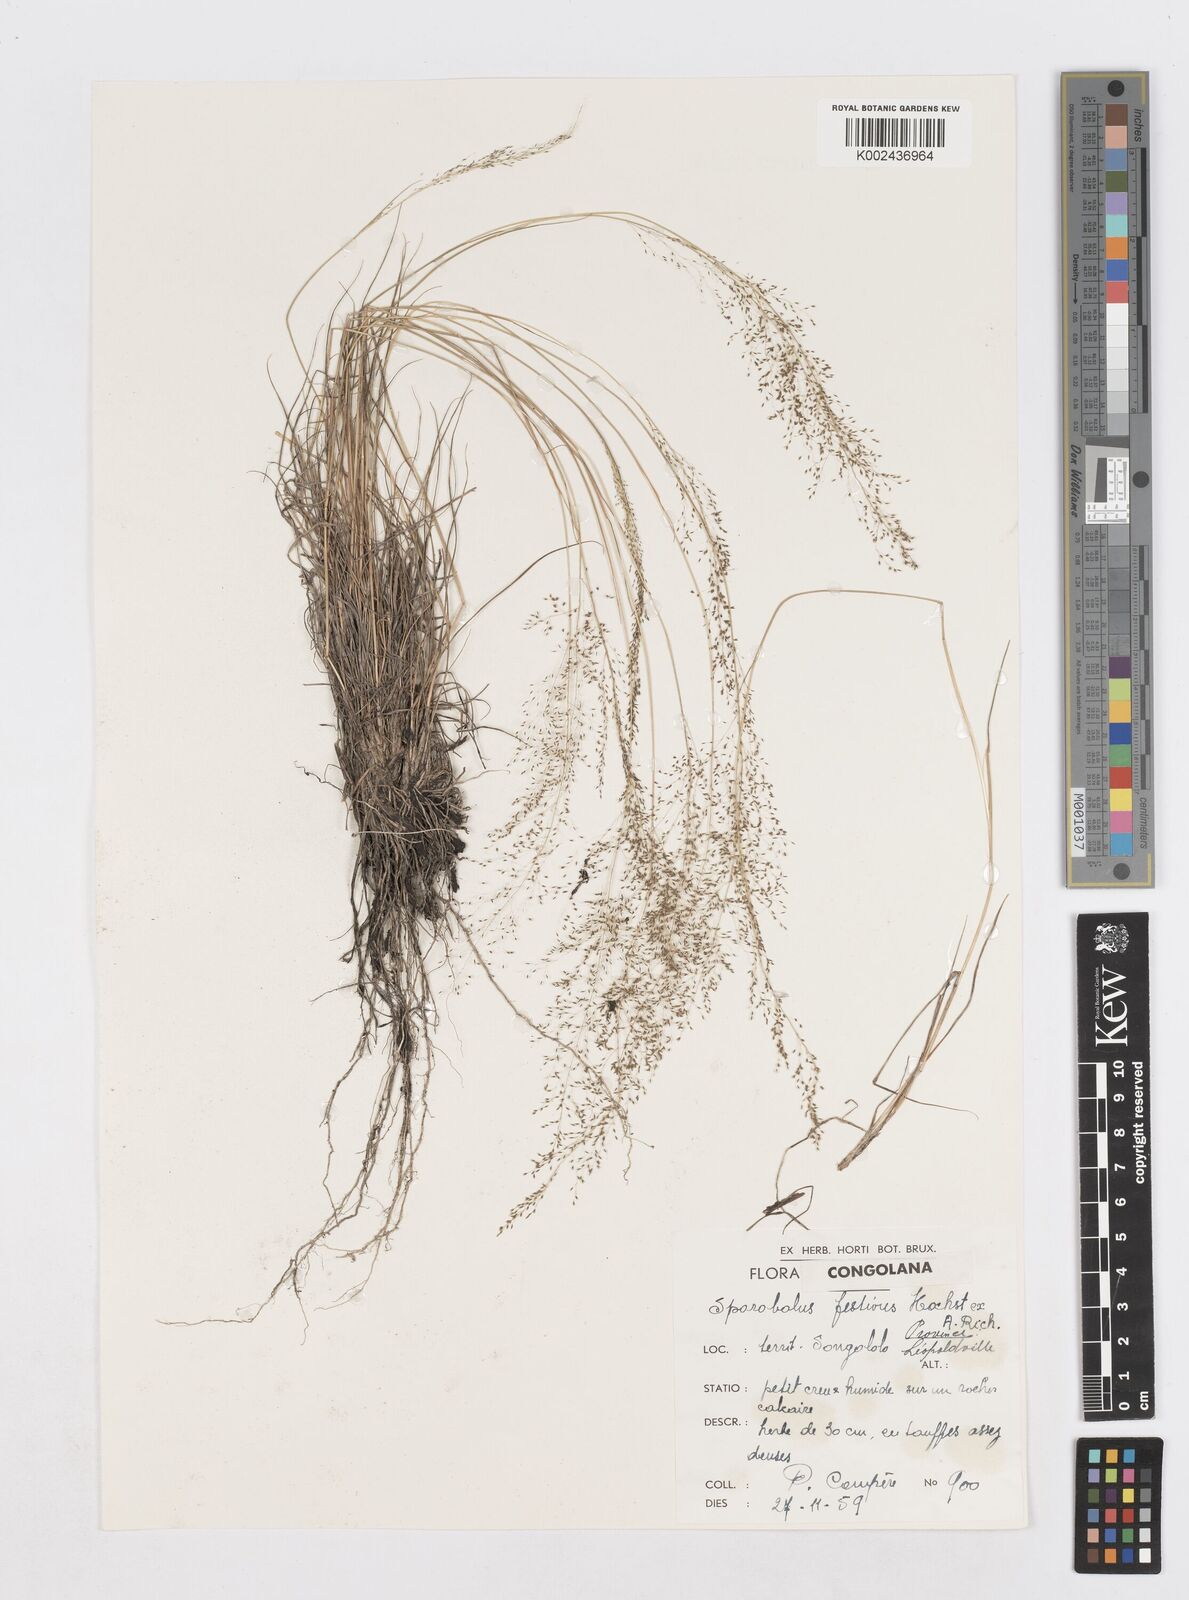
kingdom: Plantae
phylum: Tracheophyta
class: Liliopsida
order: Poales
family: Poaceae
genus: Sporobolus
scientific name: Sporobolus festivus
